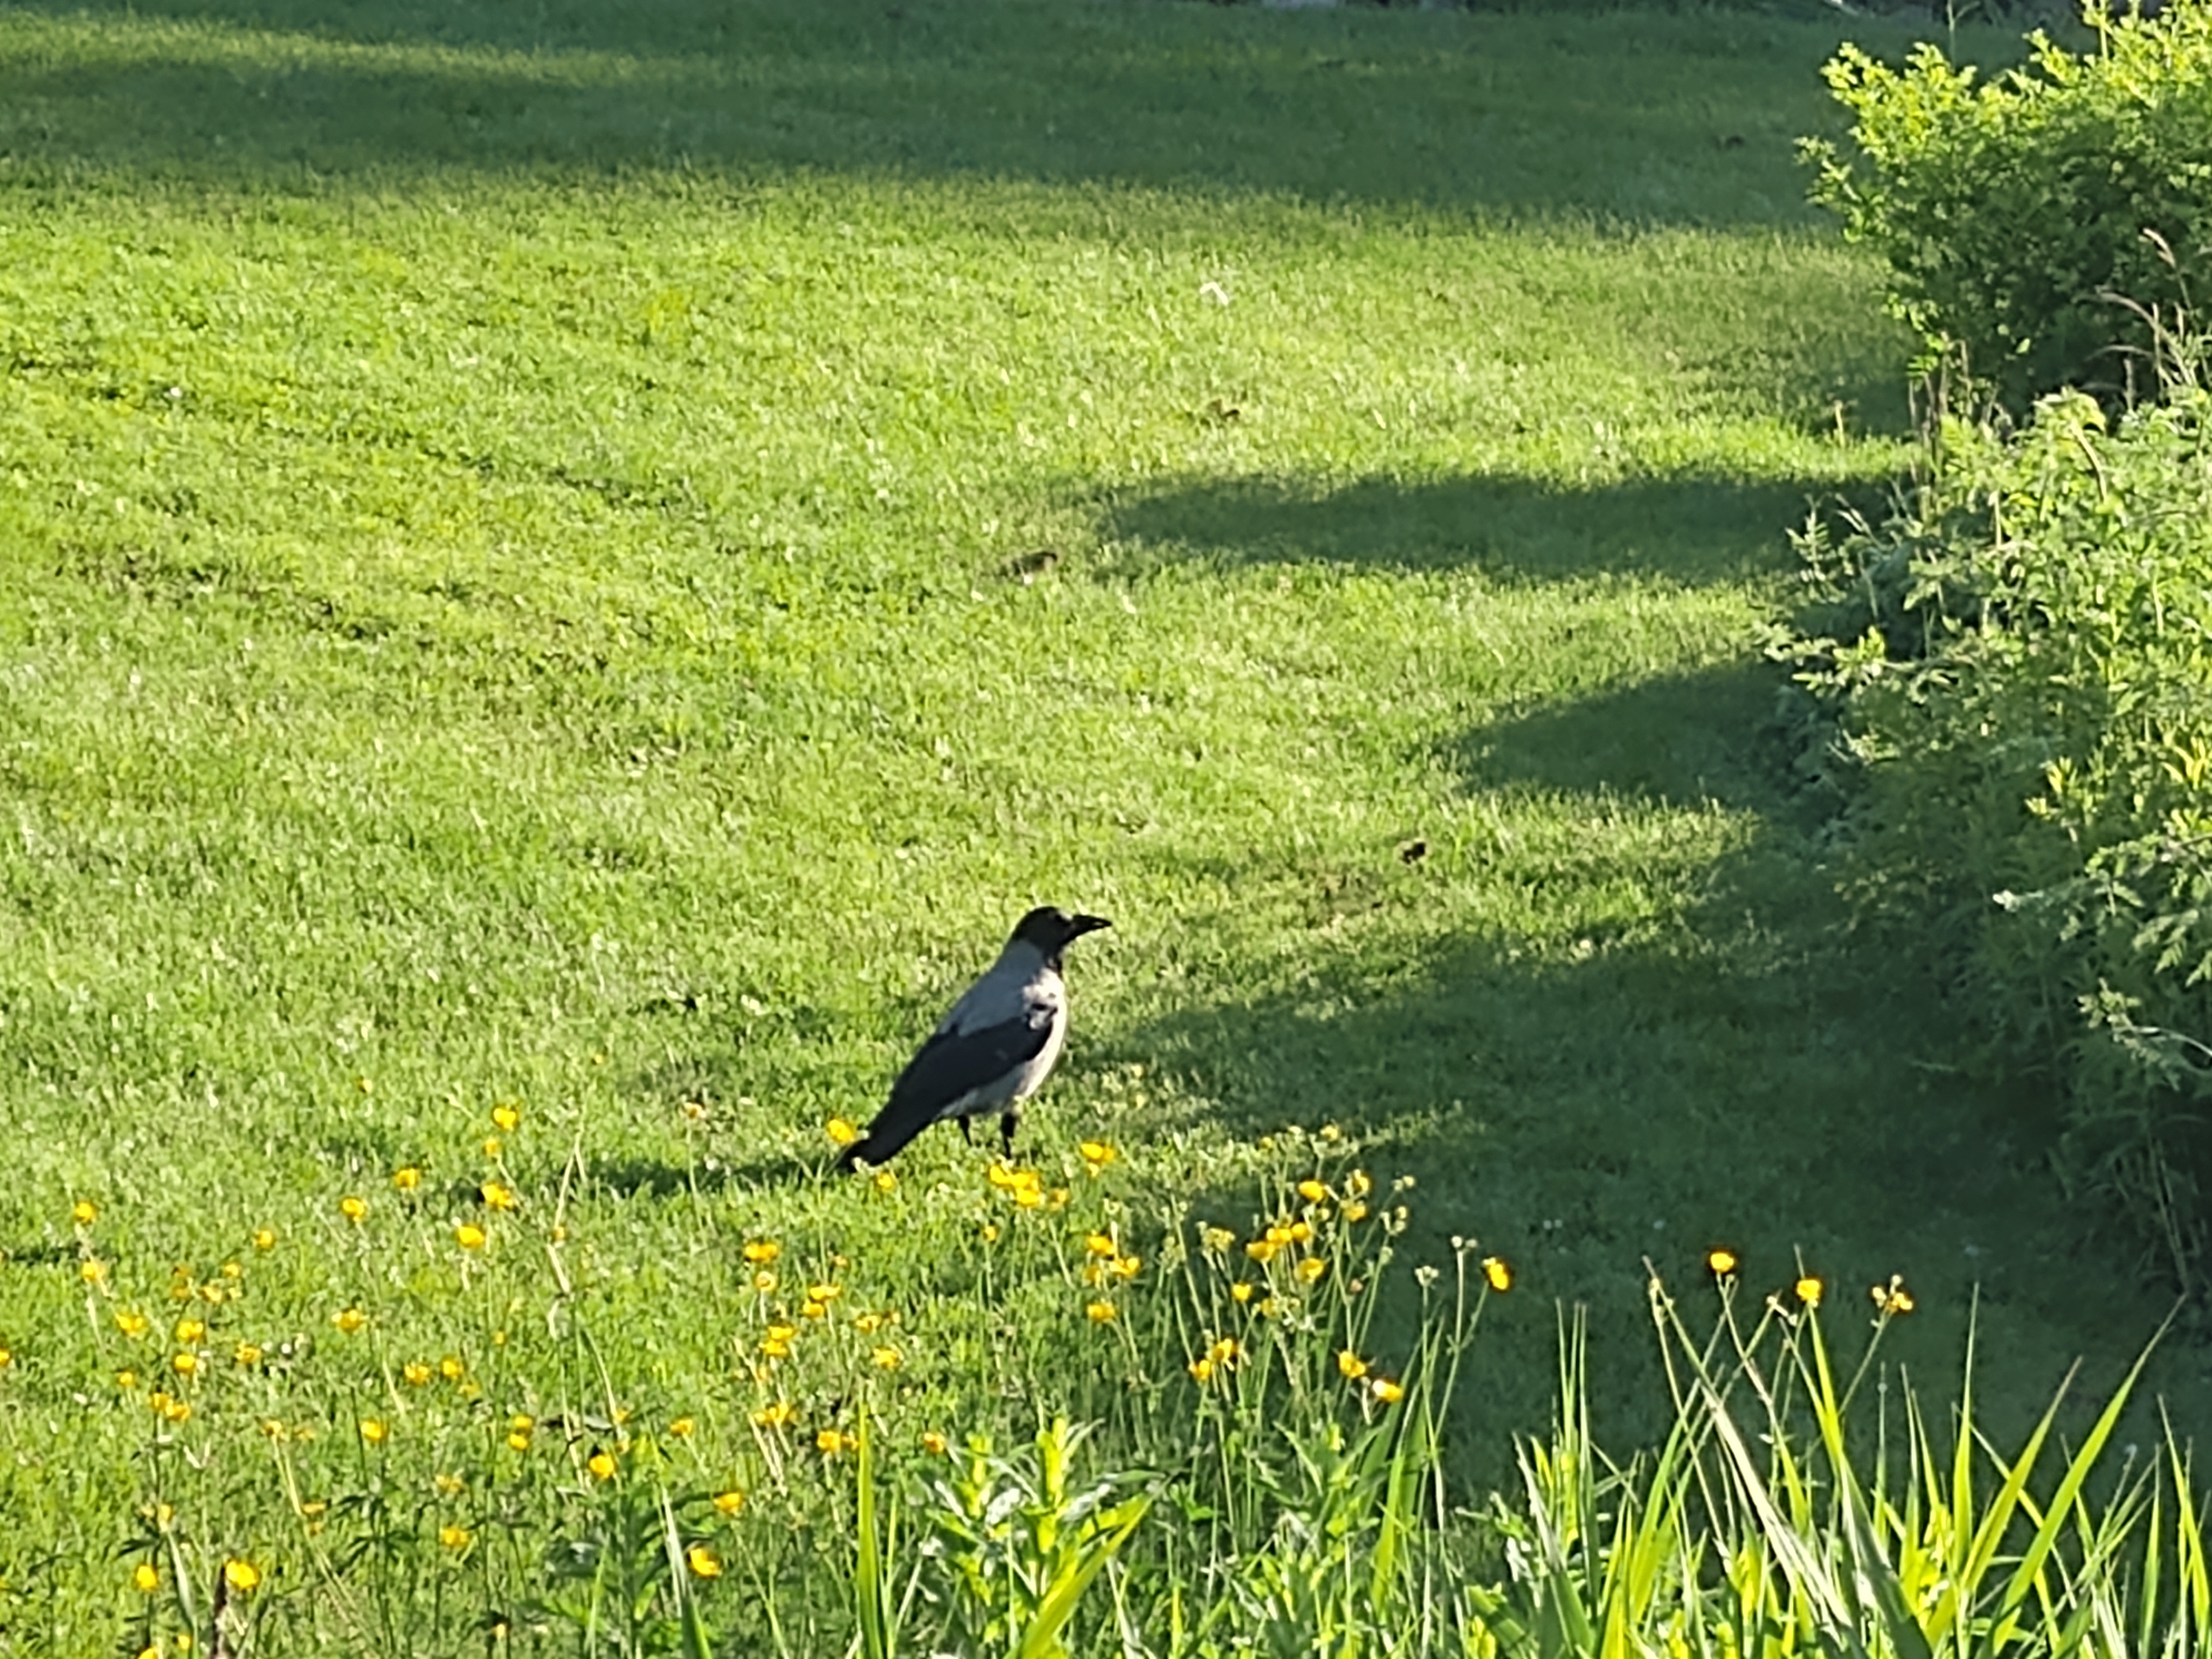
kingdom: Animalia
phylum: Chordata
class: Aves
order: Passeriformes
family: Corvidae
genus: Corvus
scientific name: Corvus cornix
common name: Gråkrage
